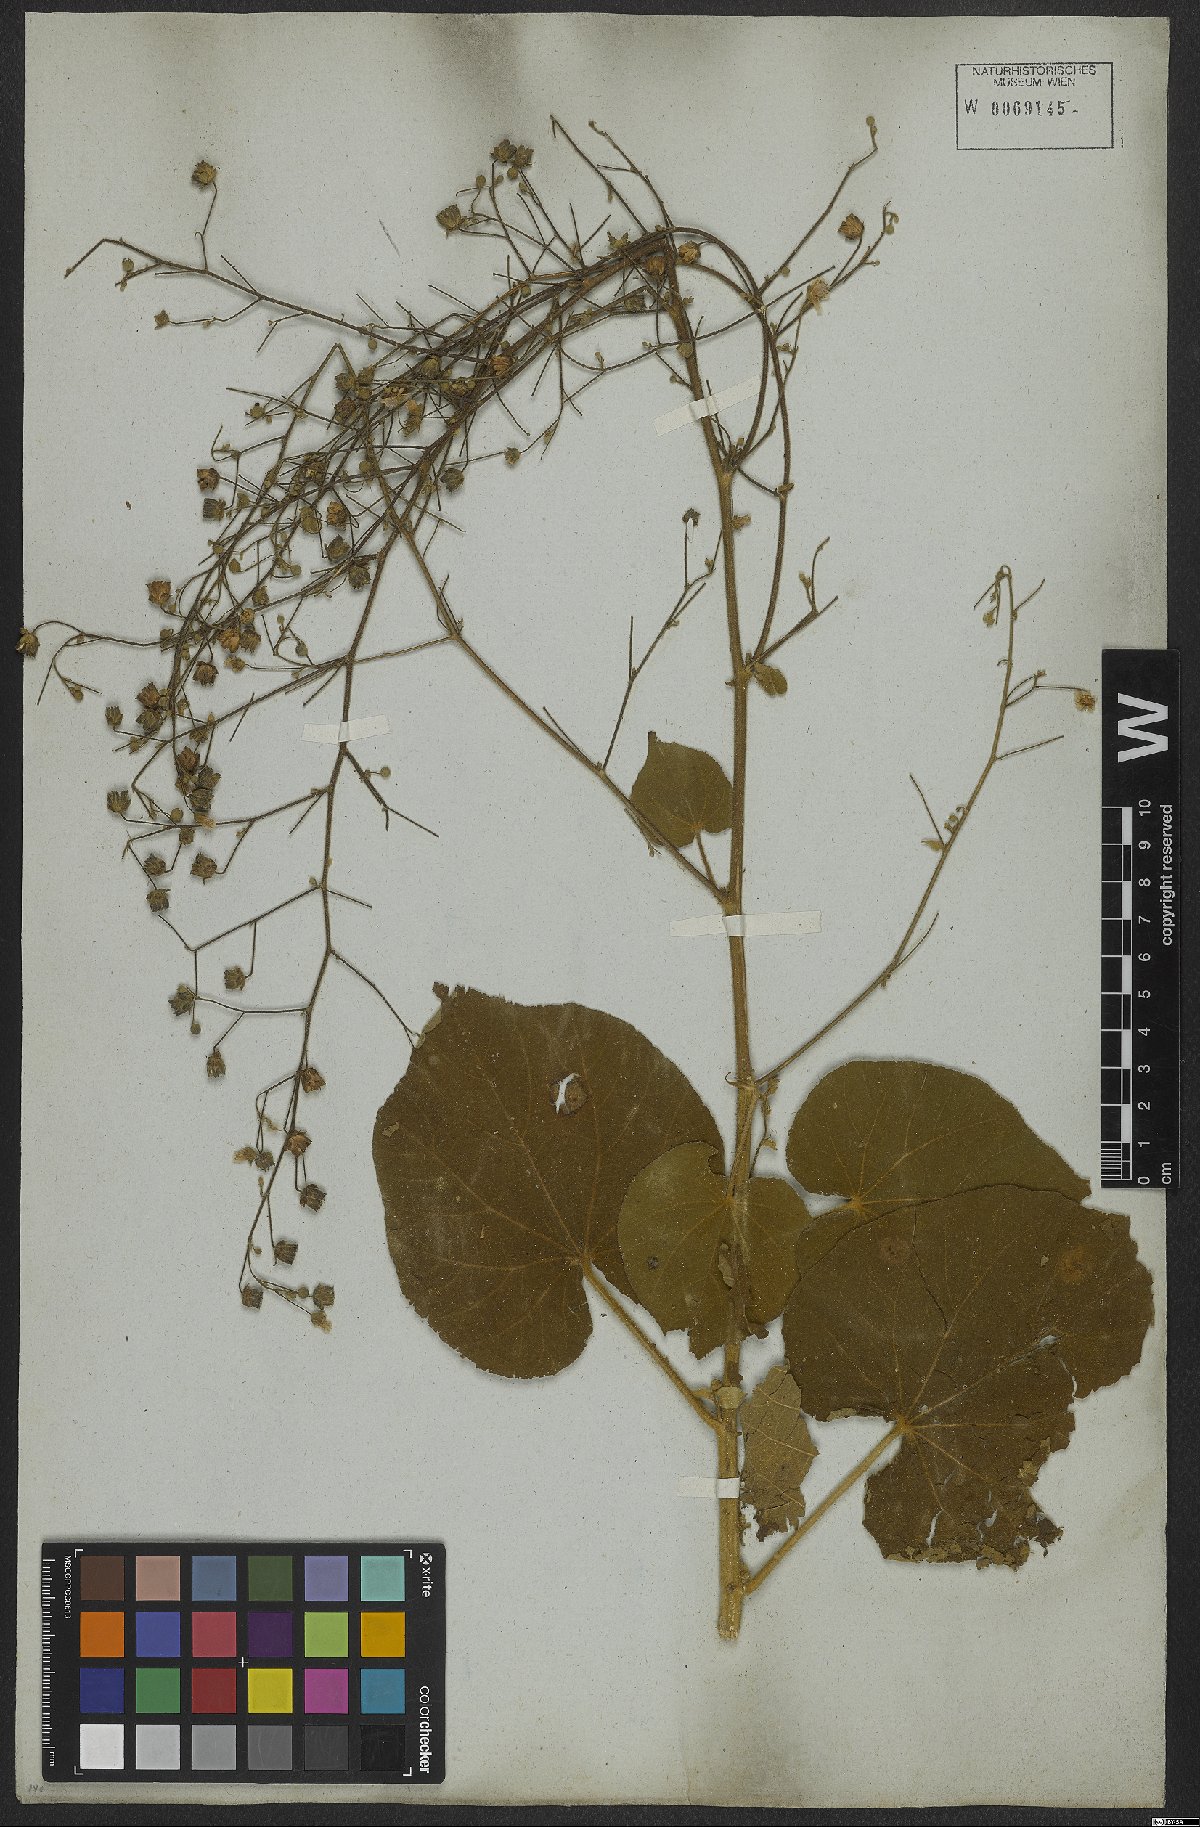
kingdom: Plantae
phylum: Tracheophyta
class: Magnoliopsida
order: Malvales
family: Malvaceae
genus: Abutilon
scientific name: Abutilon
